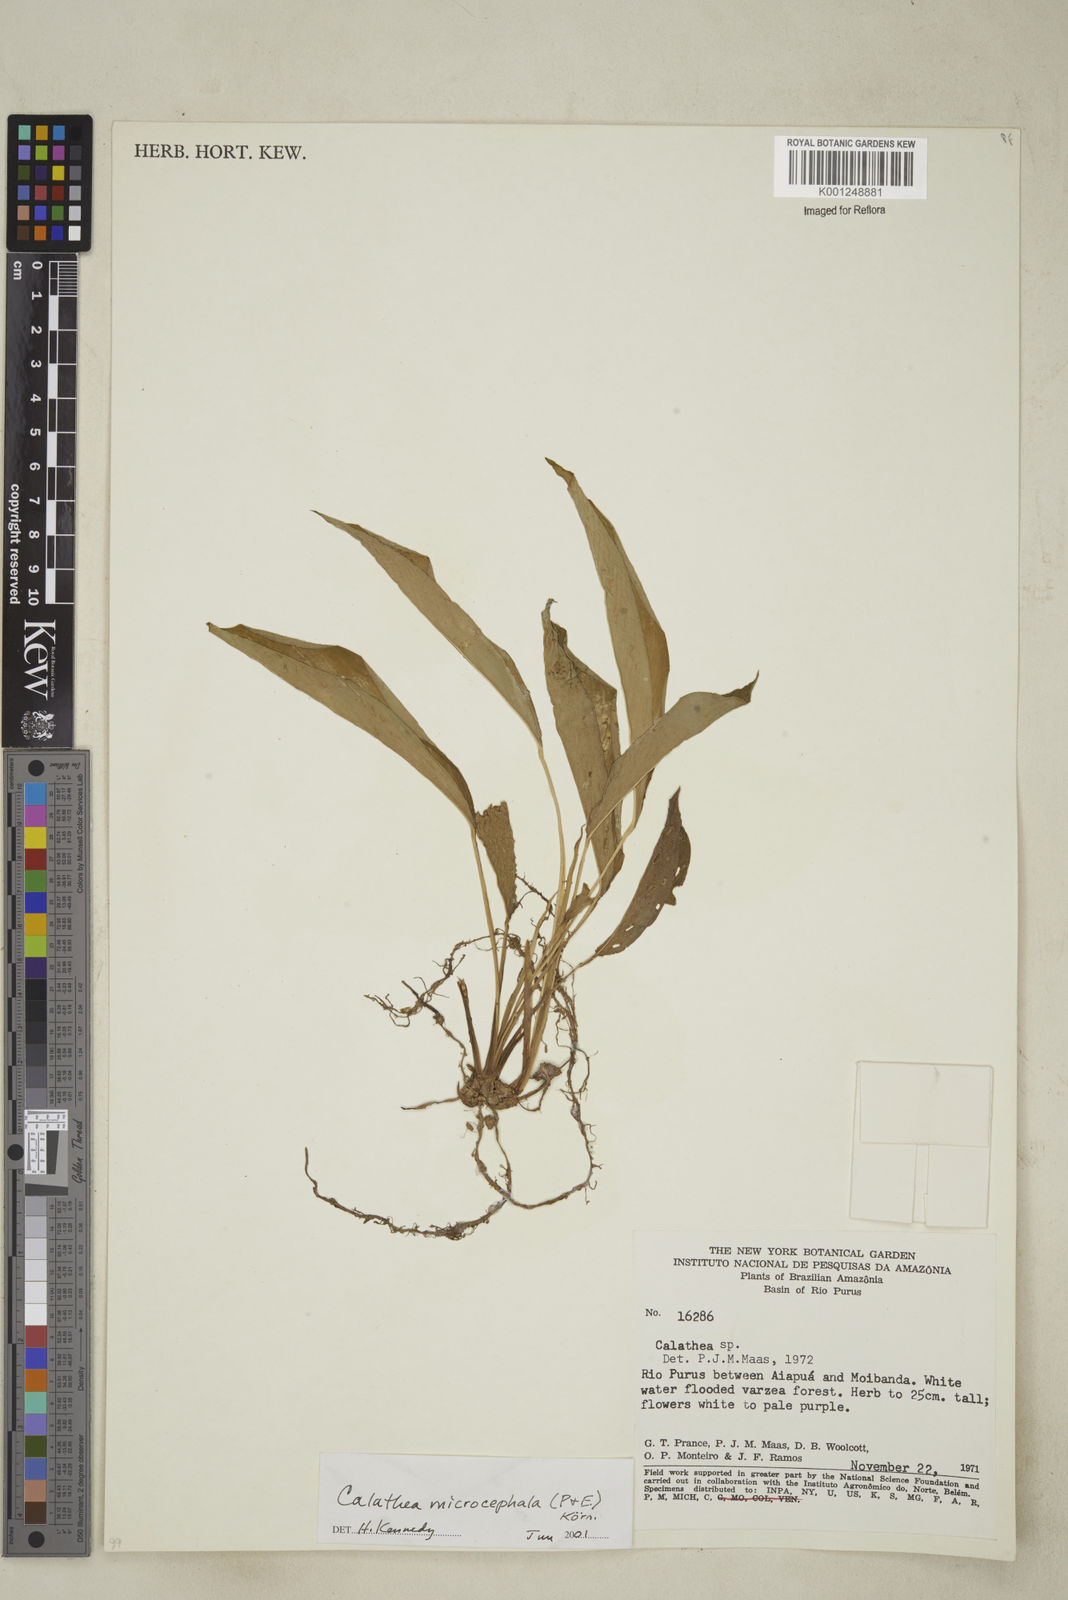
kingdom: Plantae
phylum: Tracheophyta
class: Liliopsida
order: Zingiberales
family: Marantaceae
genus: Goeppertia
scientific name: Goeppertia microcephala
